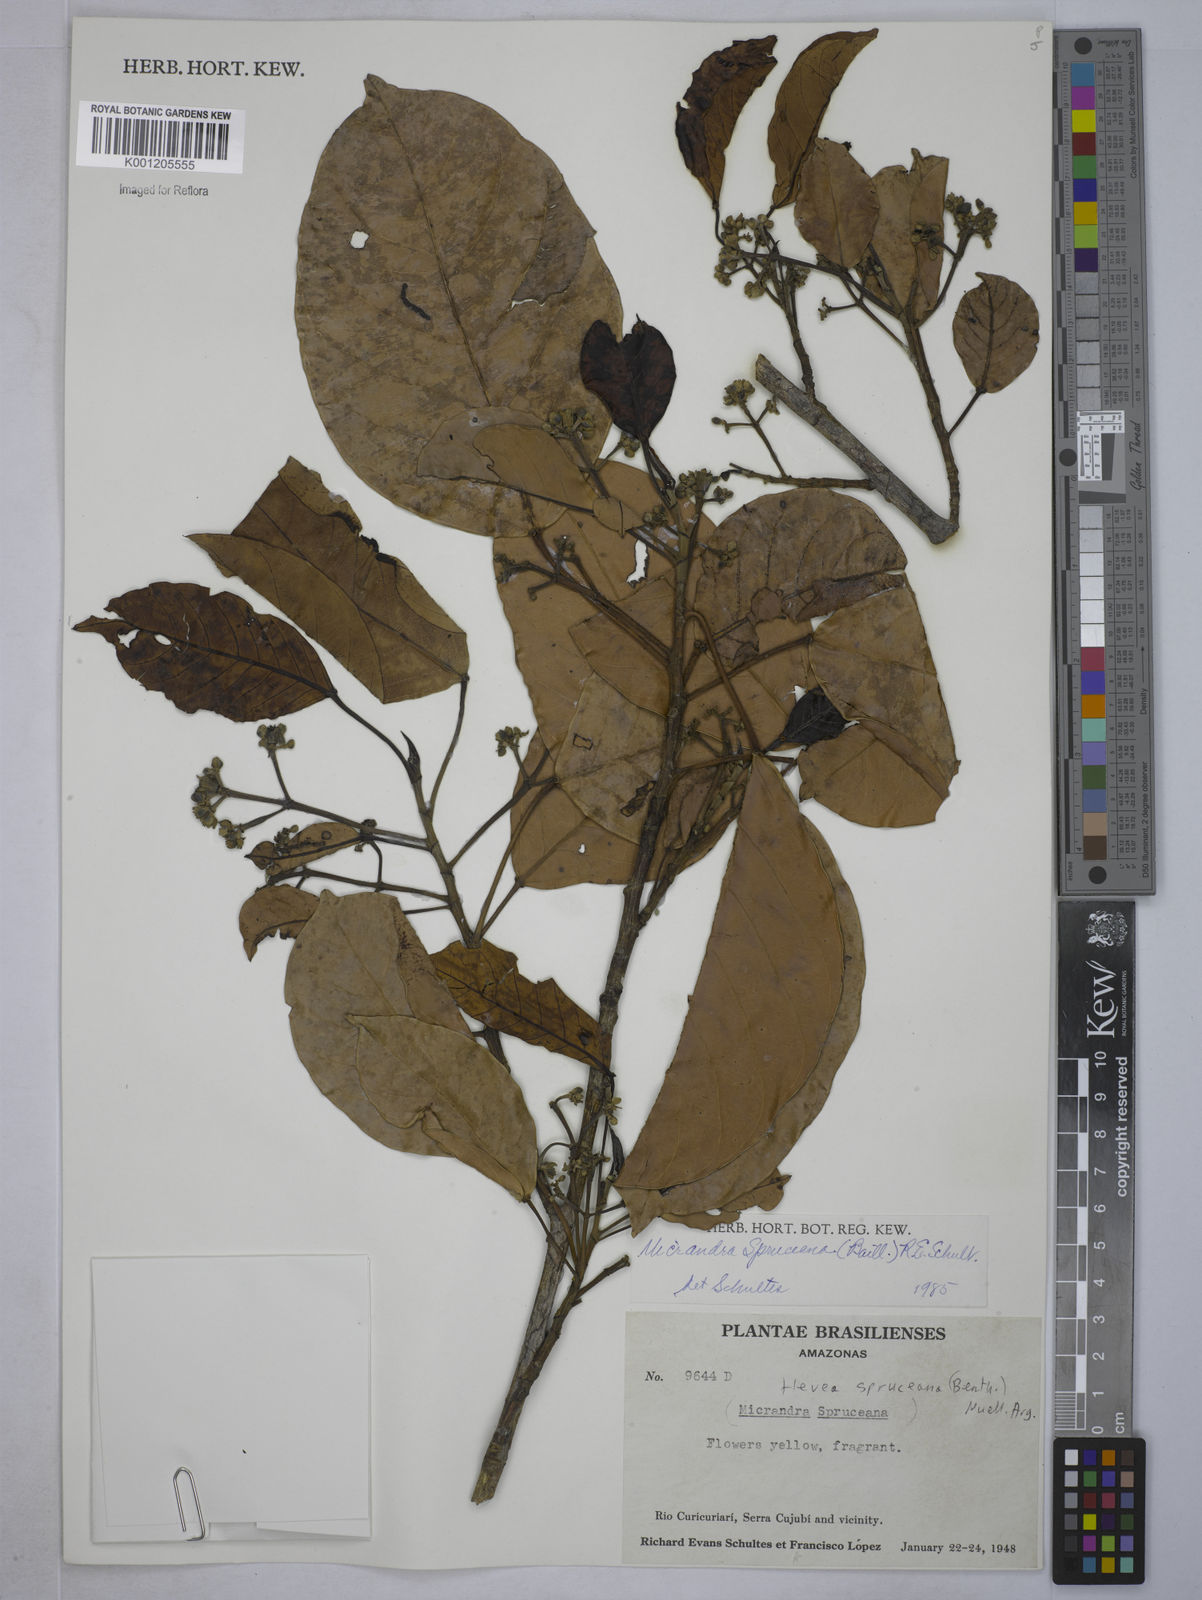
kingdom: Plantae
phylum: Tracheophyta
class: Magnoliopsida
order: Malpighiales
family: Euphorbiaceae
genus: Hevea
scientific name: Hevea
